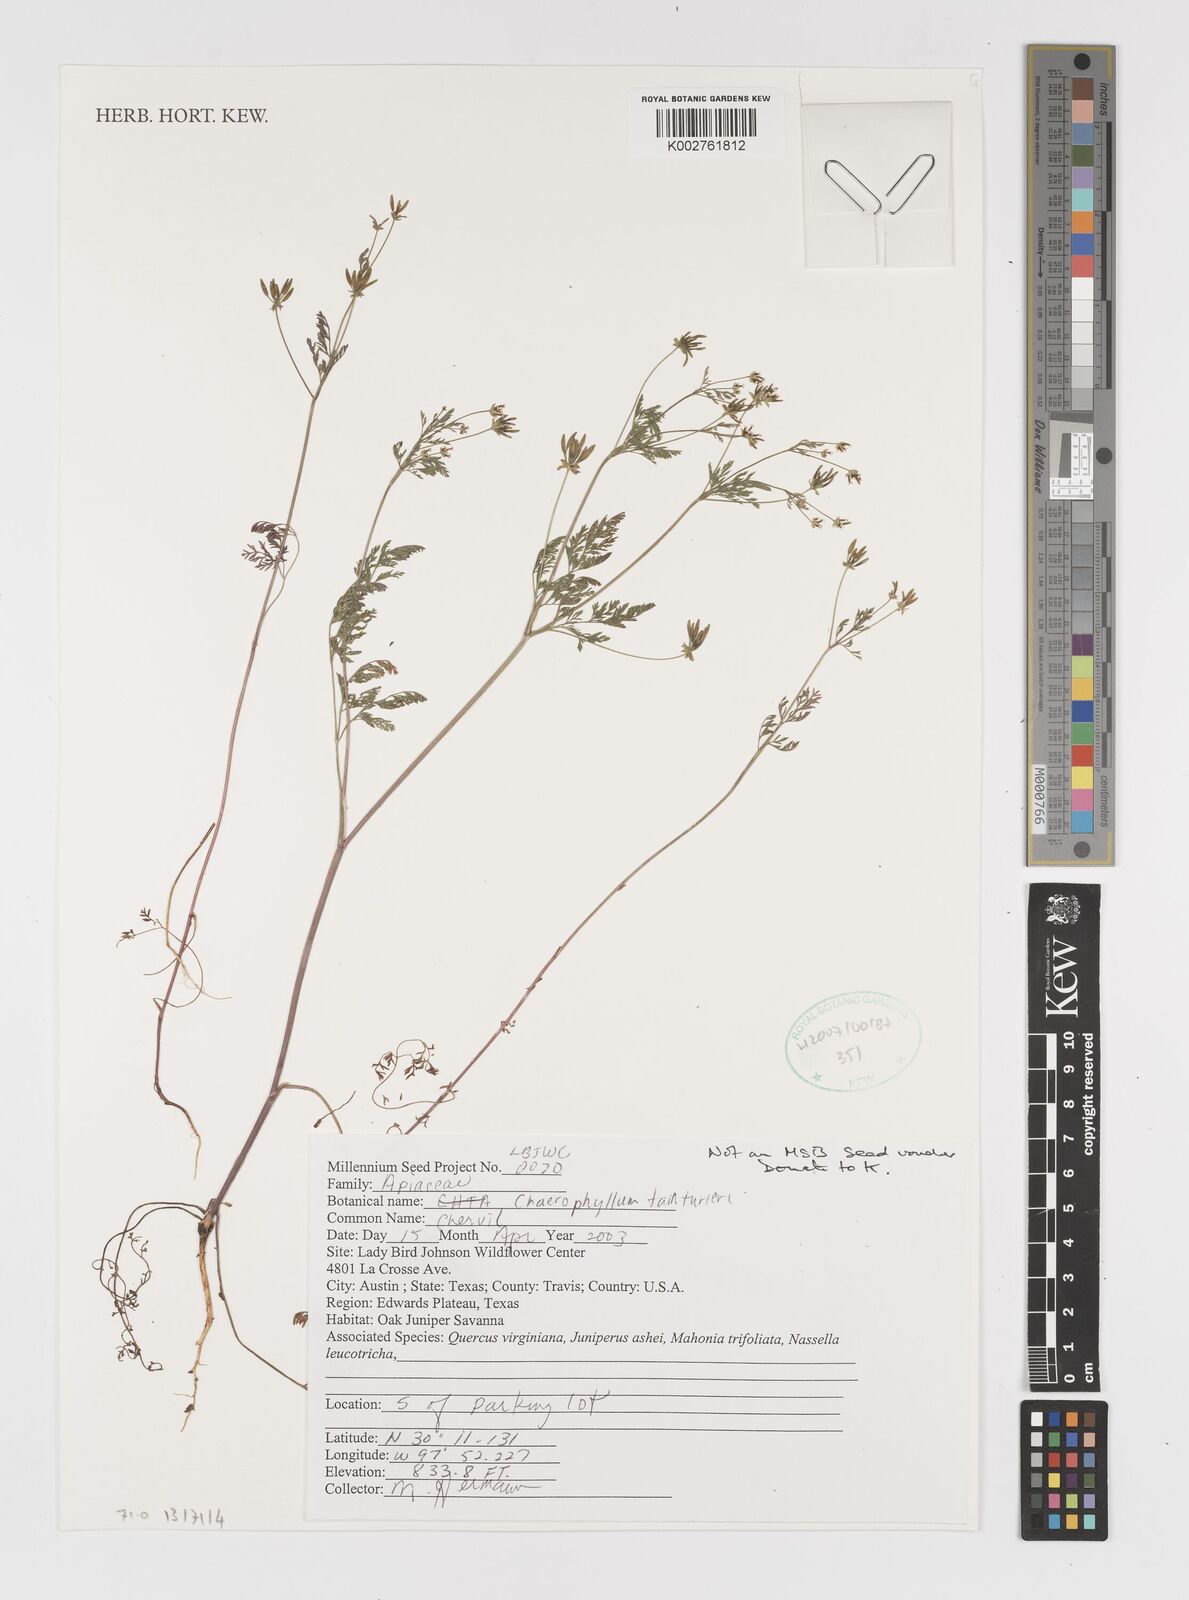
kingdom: Plantae
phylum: Tracheophyta
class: Magnoliopsida
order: Apiales
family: Apiaceae
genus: Chaerophyllum
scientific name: Chaerophyllum tainturieri
